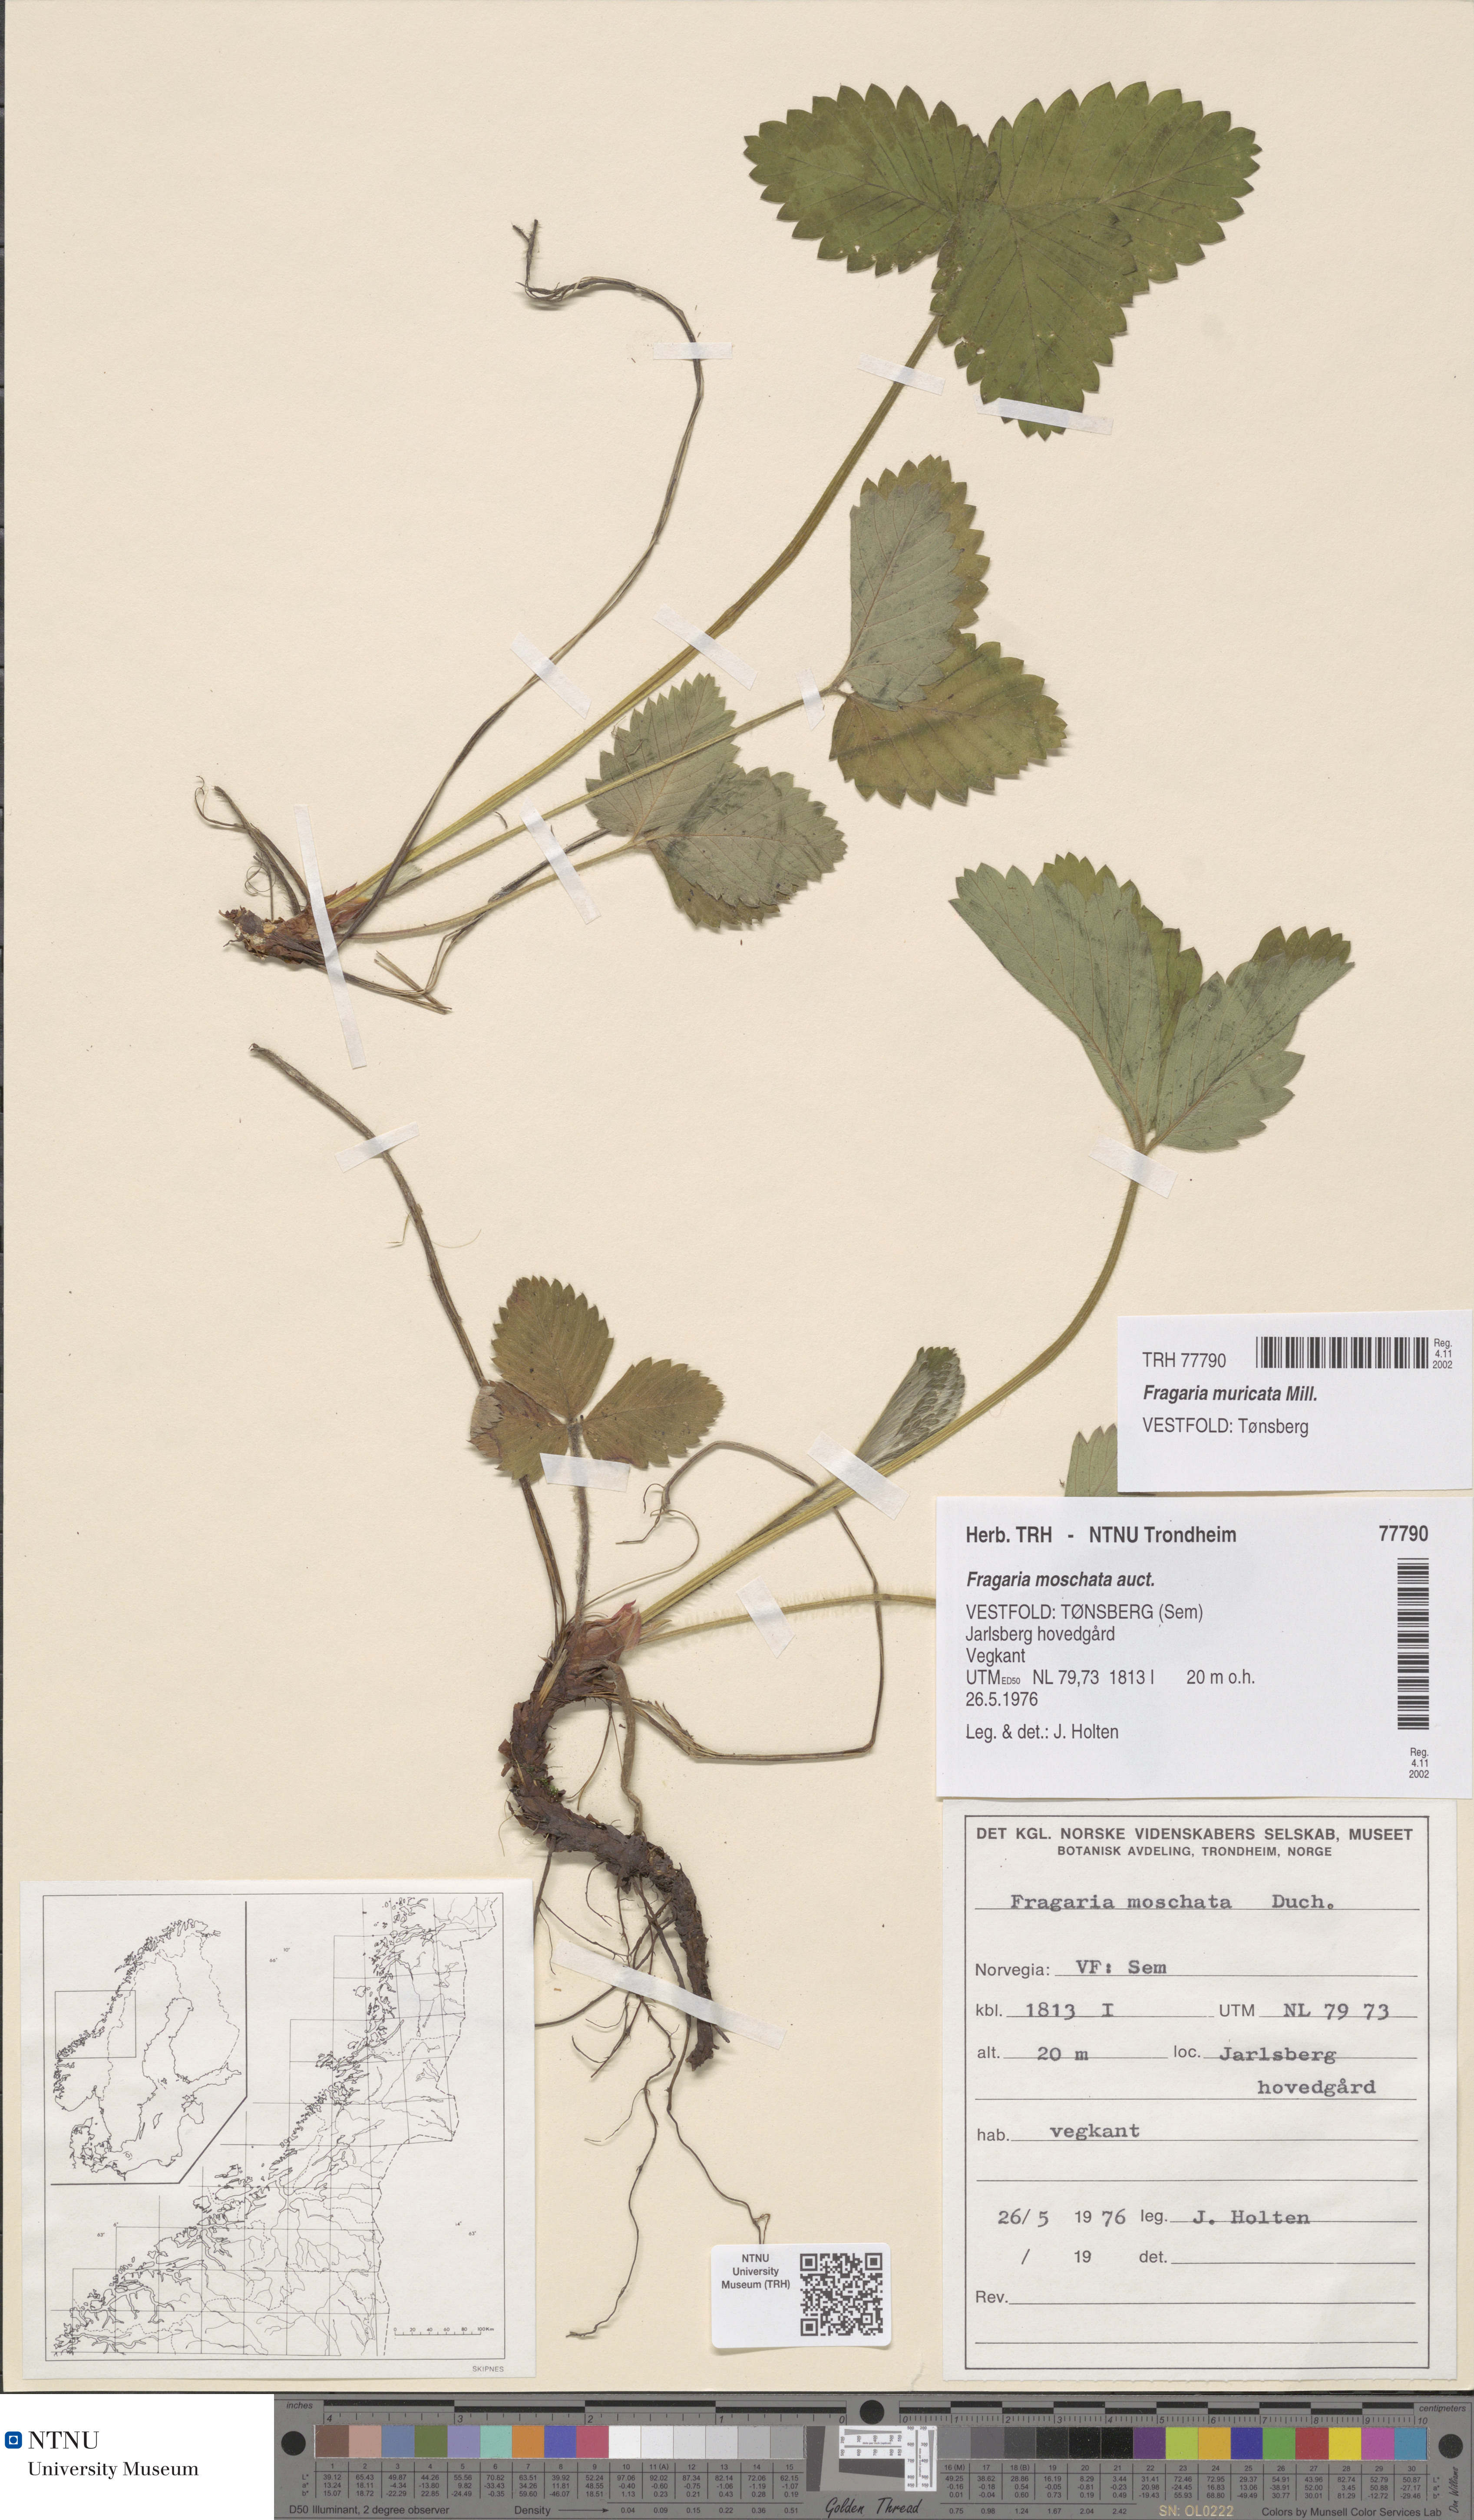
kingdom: Plantae
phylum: Tracheophyta
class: Magnoliopsida
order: Rosales
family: Rosaceae
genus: Fragaria
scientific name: Fragaria moschata
